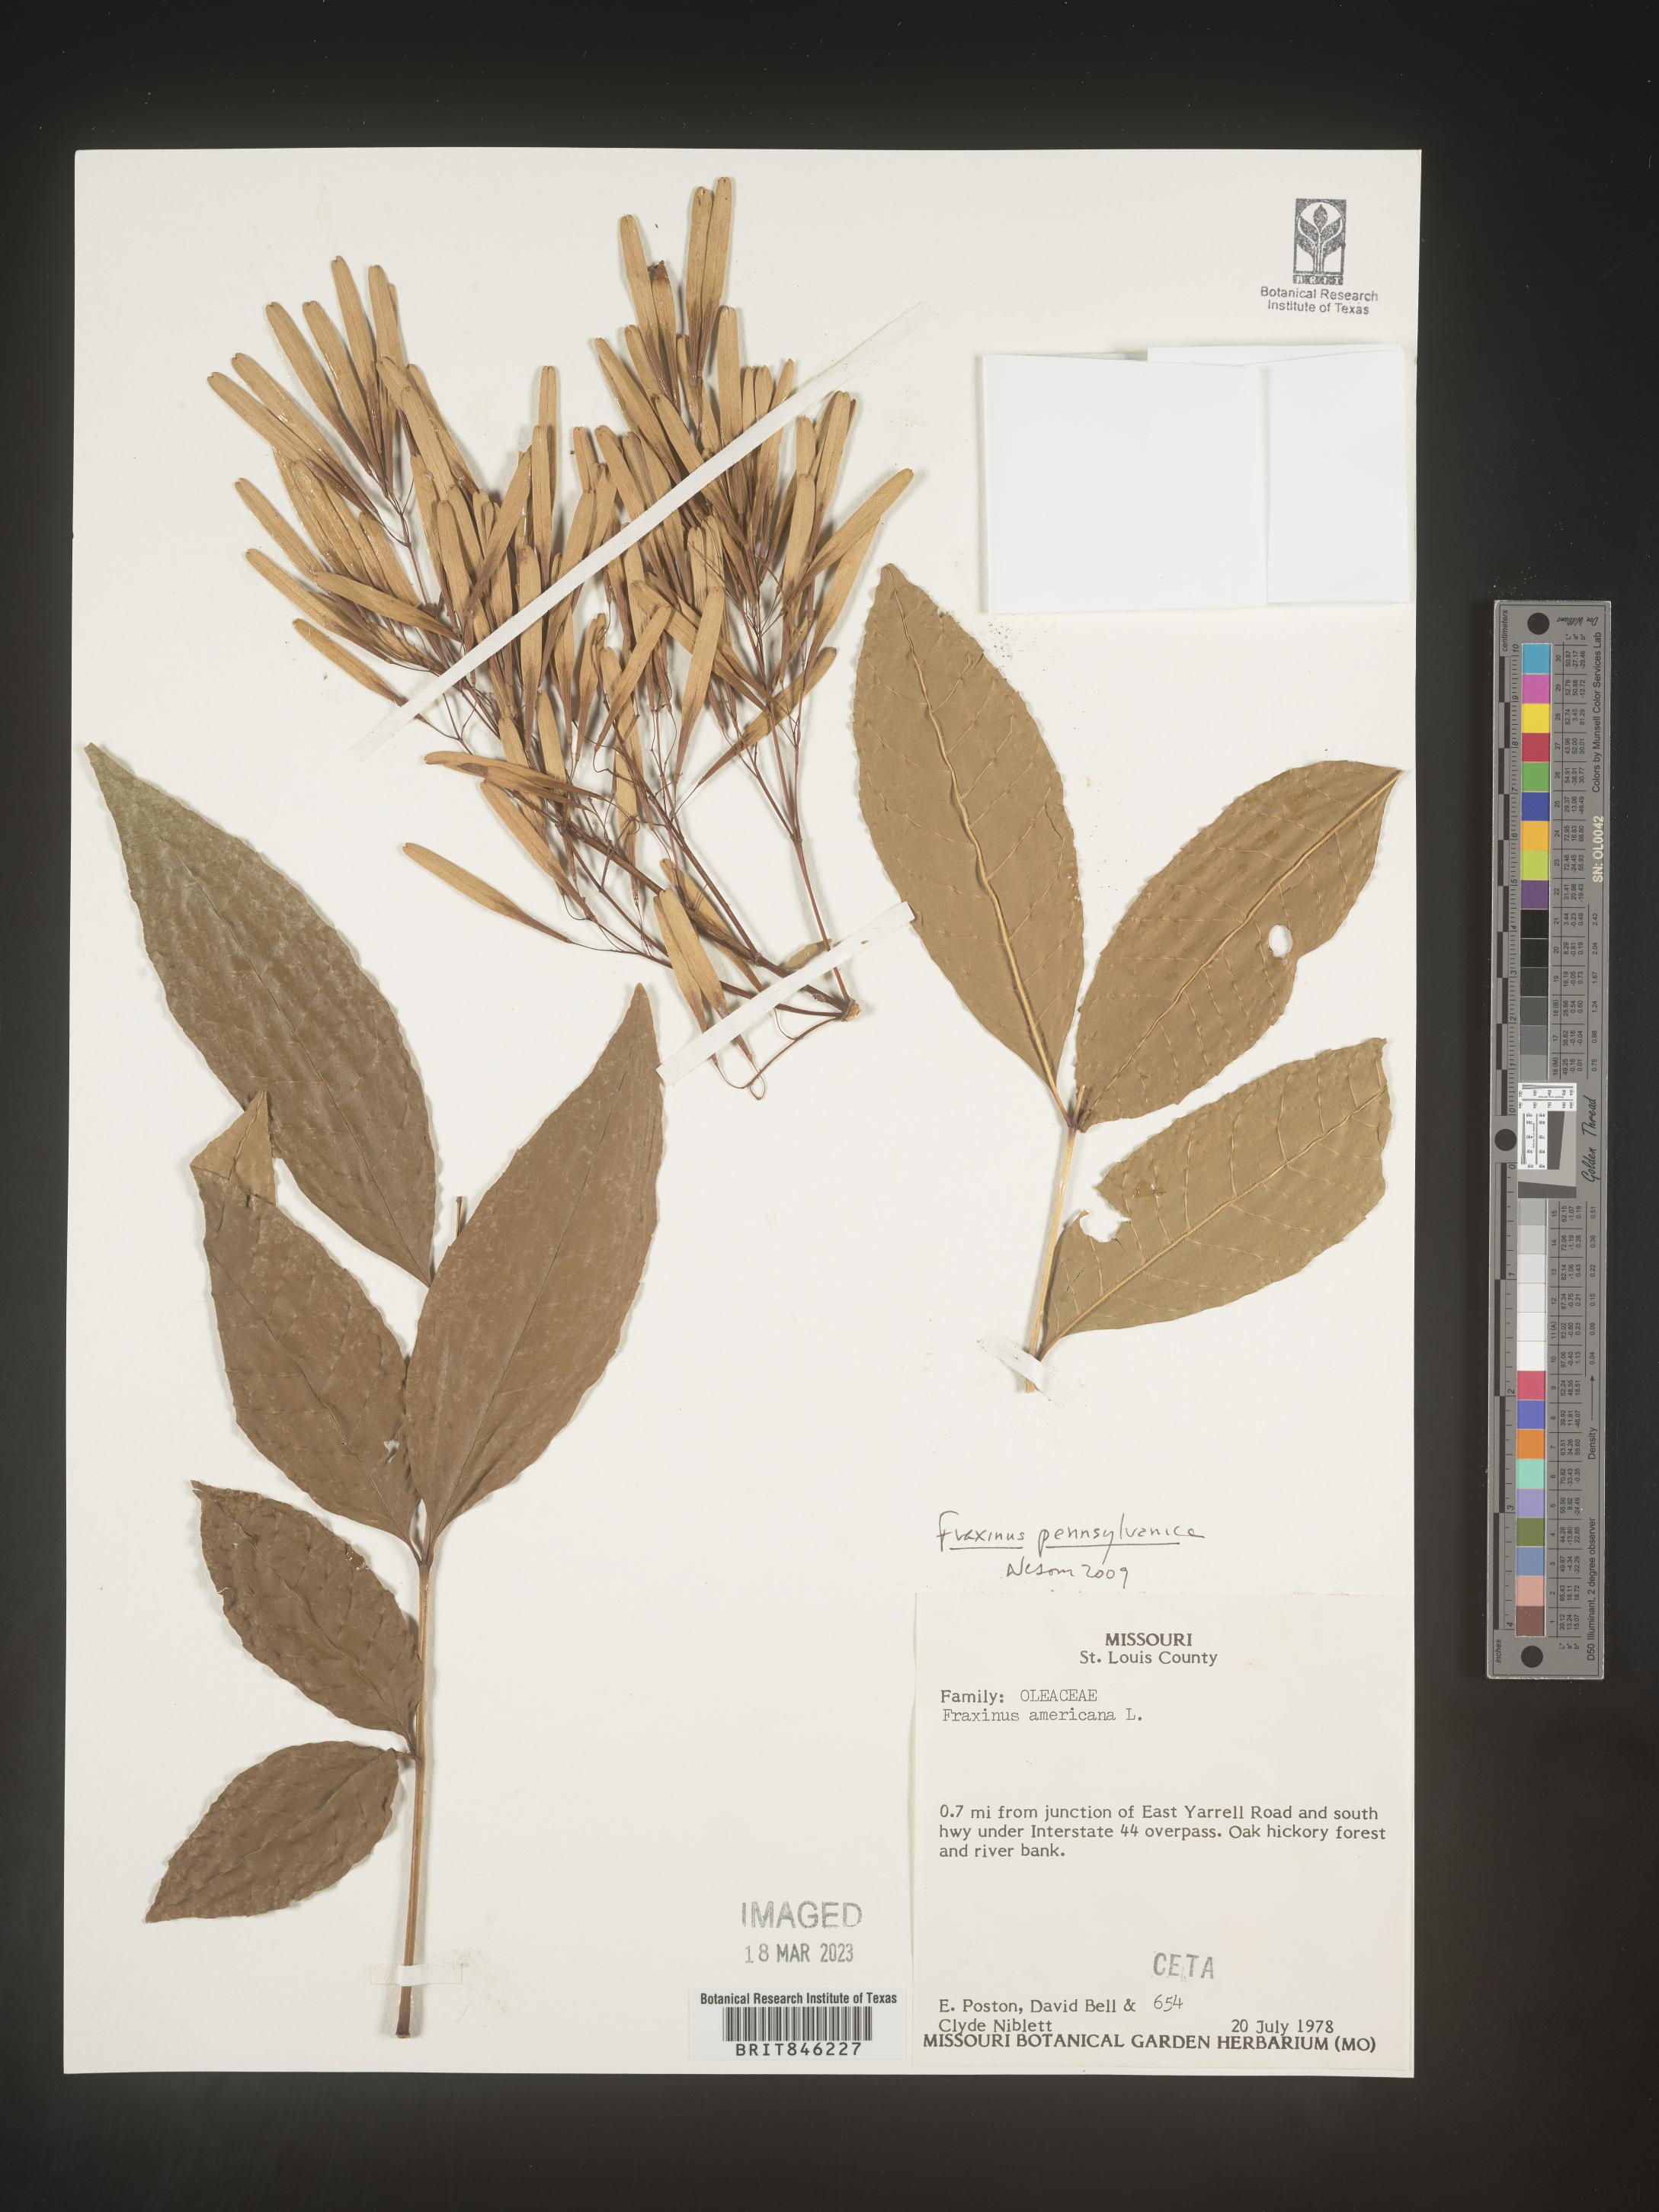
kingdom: Plantae
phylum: Tracheophyta
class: Magnoliopsida
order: Lamiales
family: Oleaceae
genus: Fraxinus
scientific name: Fraxinus pennsylvanica
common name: Green ash
